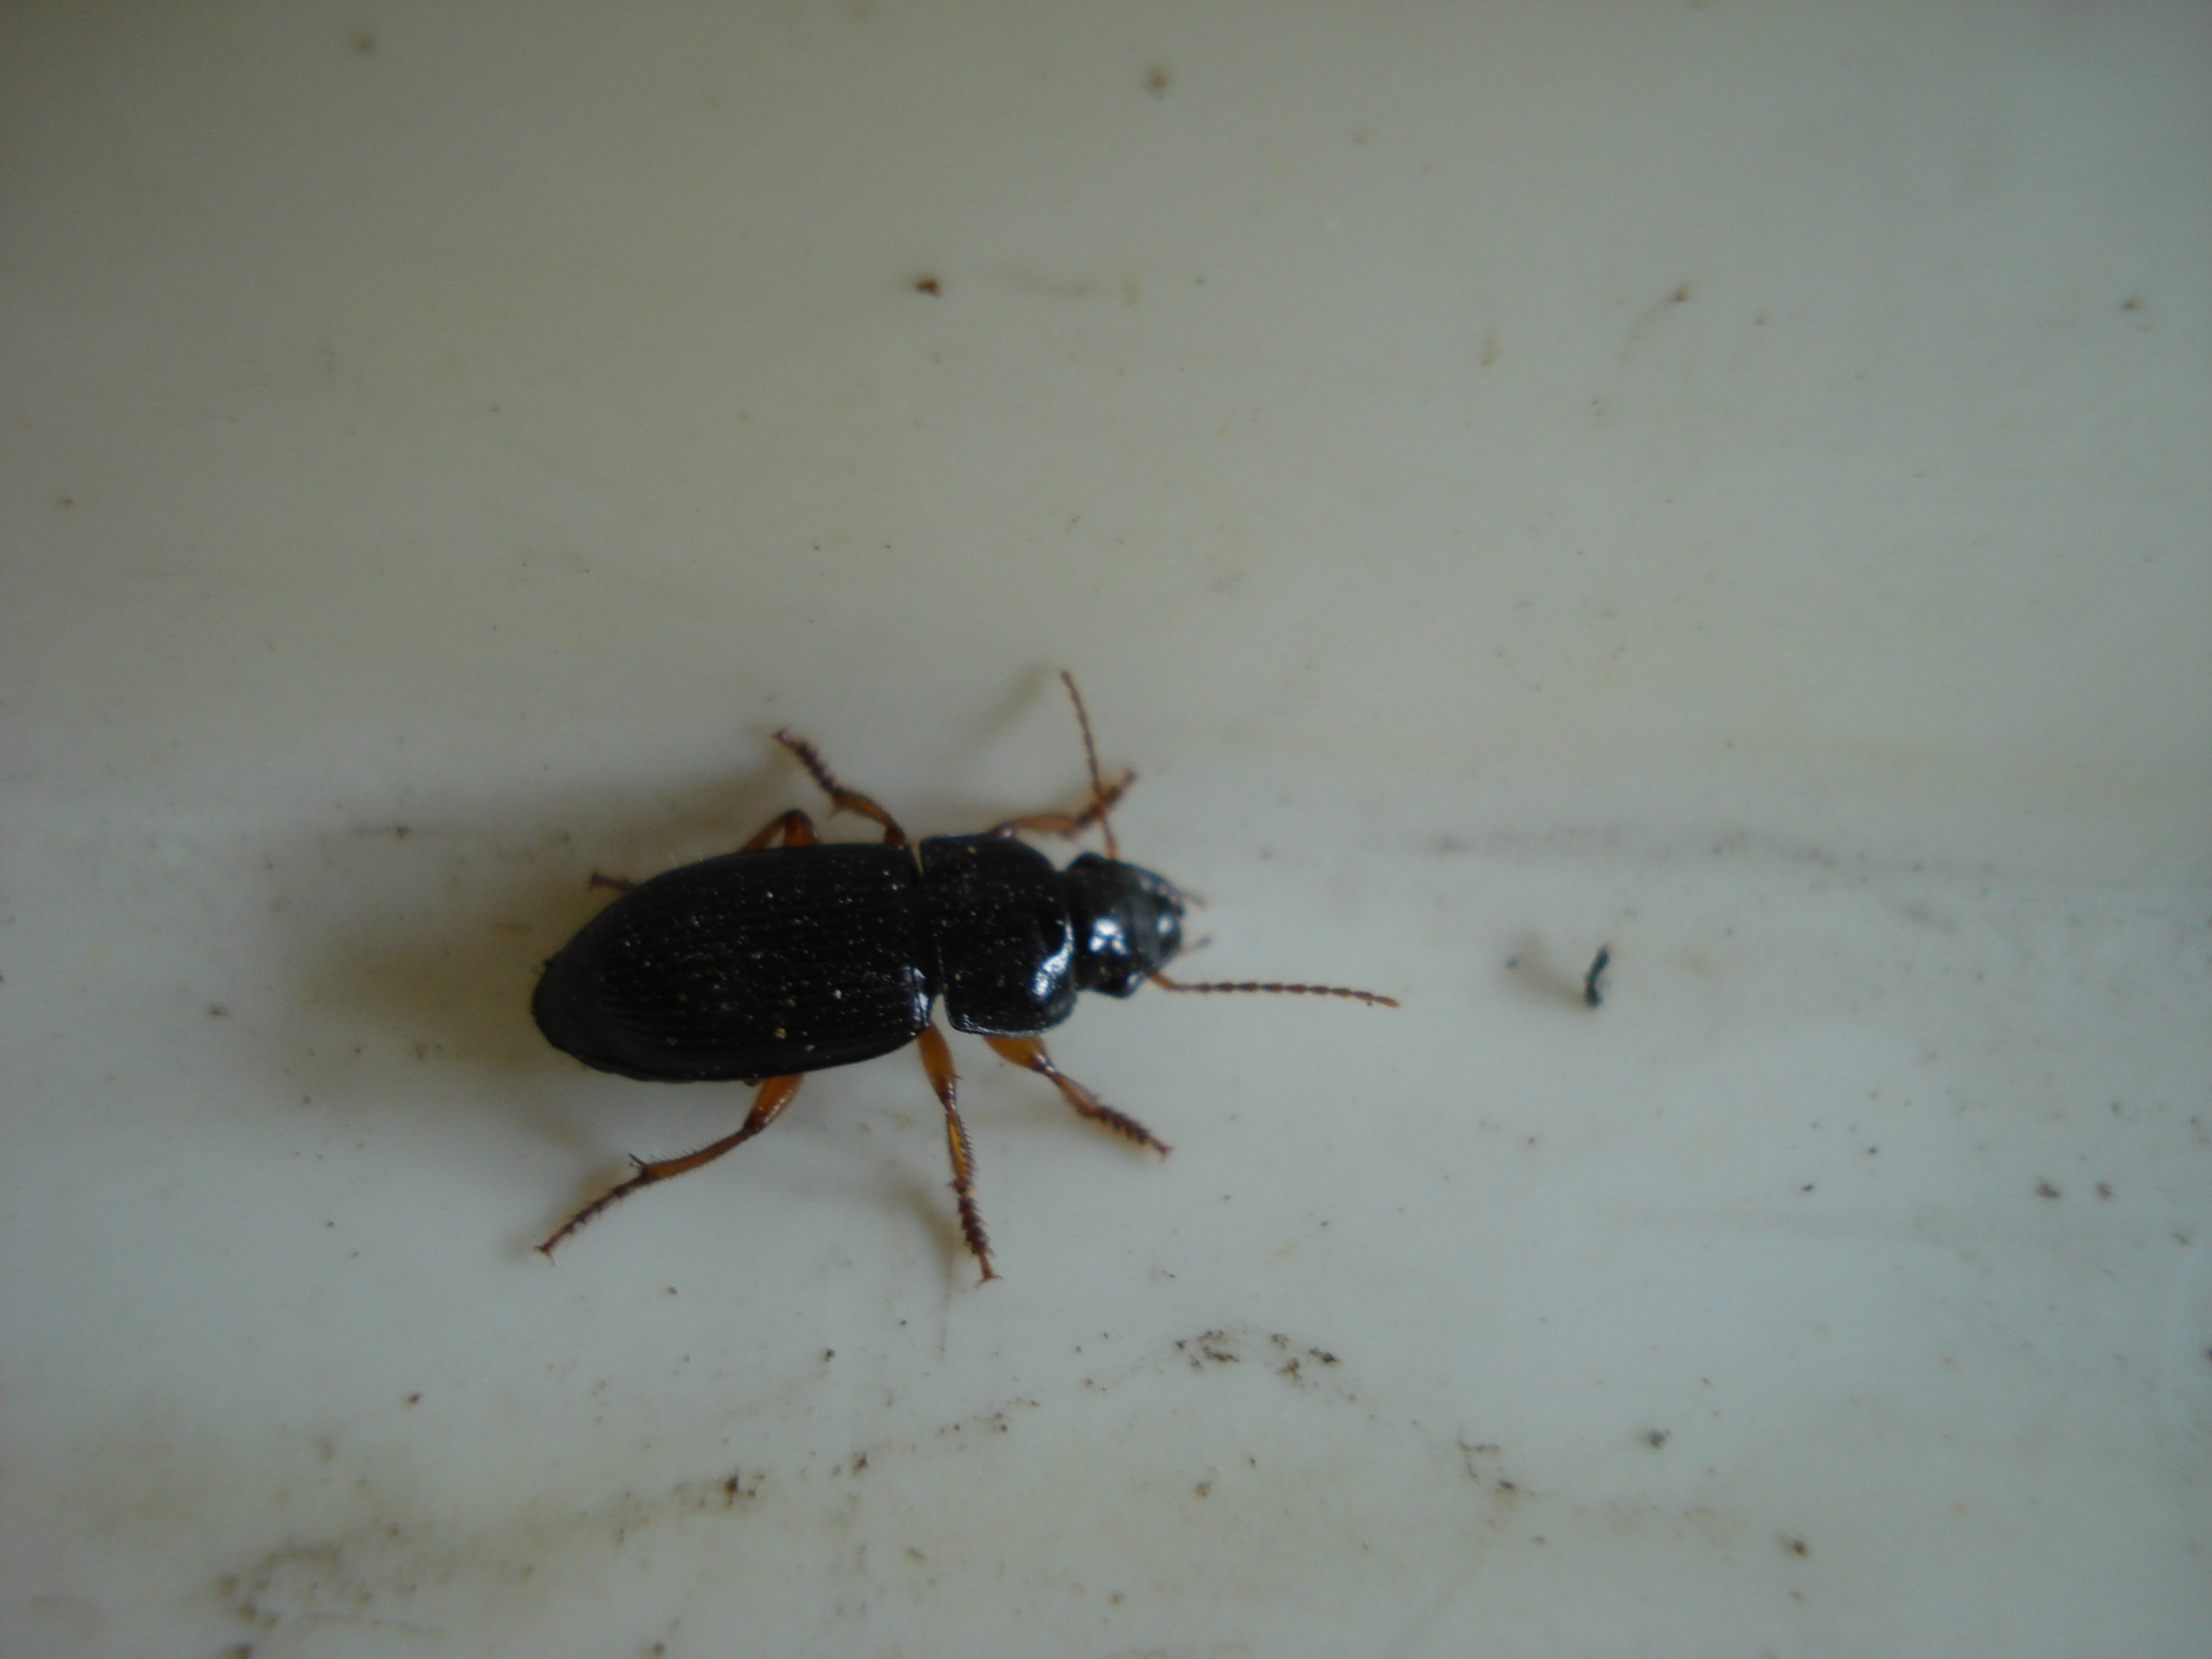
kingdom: Animalia
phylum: Arthropoda
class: Insecta
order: Coleoptera
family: Carabidae
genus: Harpalus
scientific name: Harpalus rubripes
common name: Rødbenet markløber
